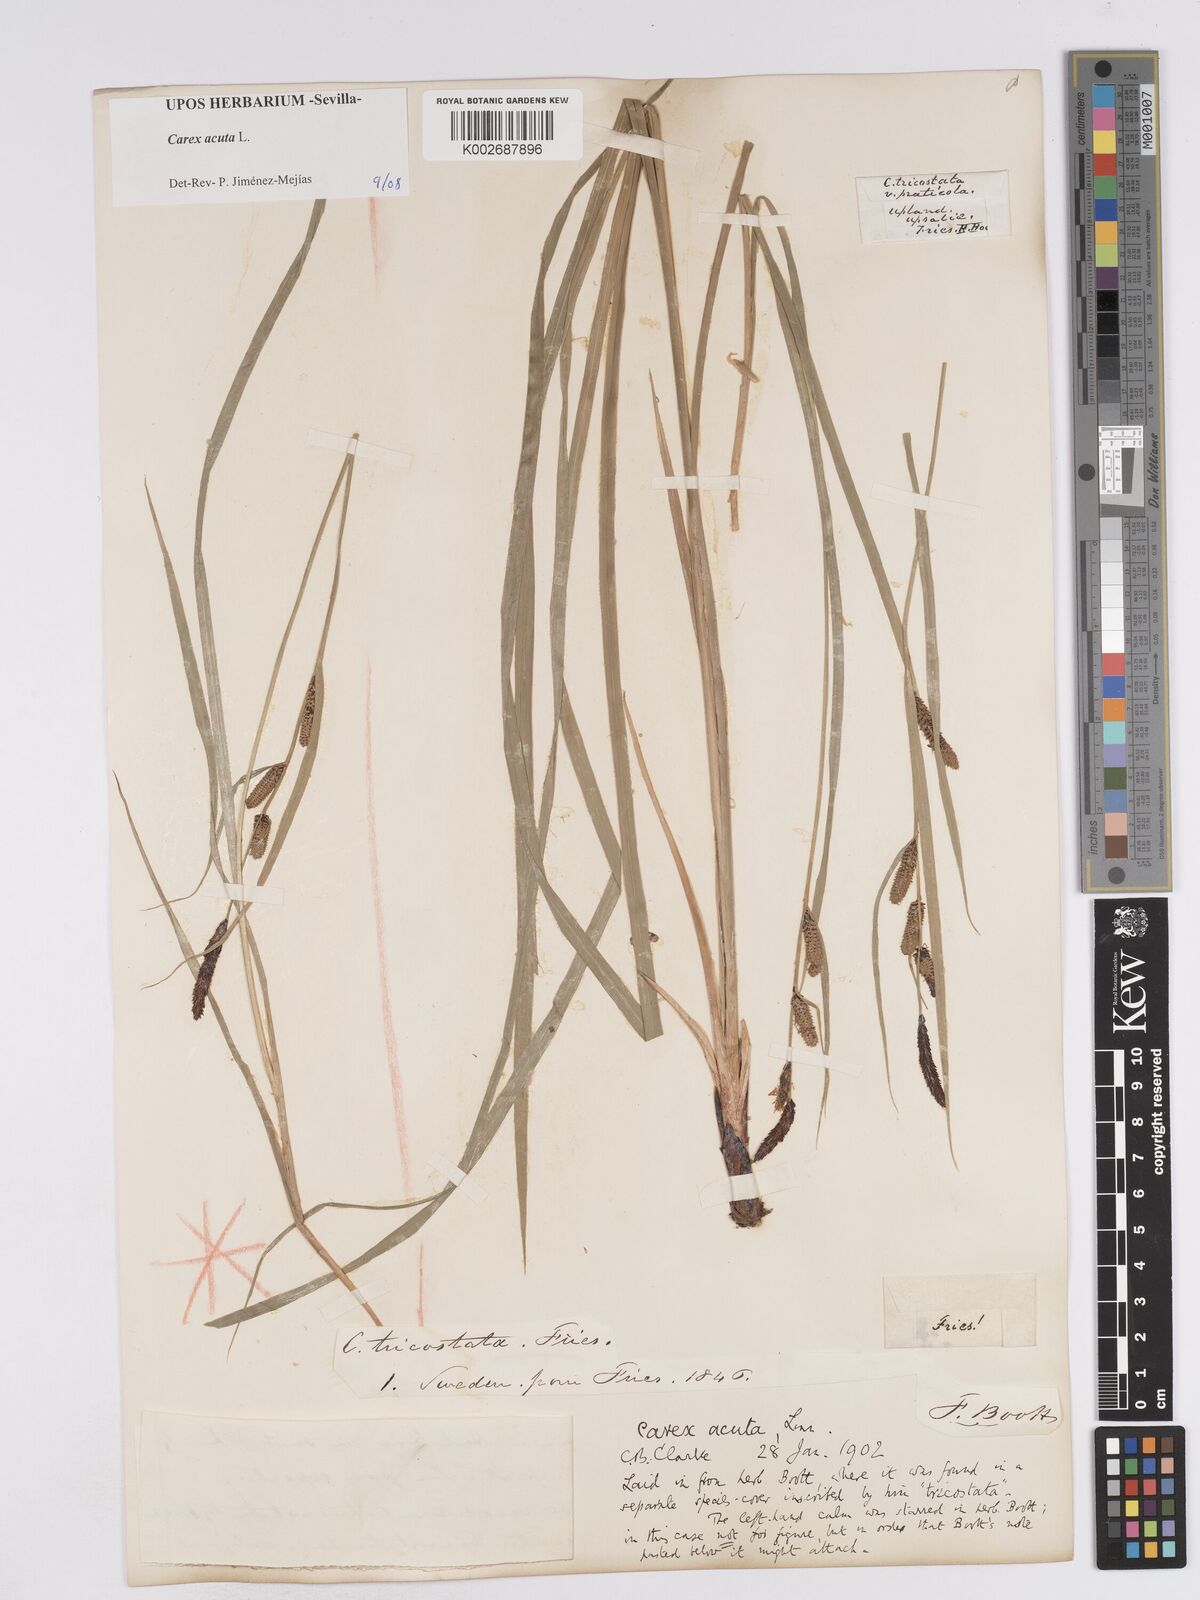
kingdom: Plantae
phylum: Tracheophyta
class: Liliopsida
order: Poales
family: Cyperaceae
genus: Carex
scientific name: Carex acuta
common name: Slender tufted-sedge
